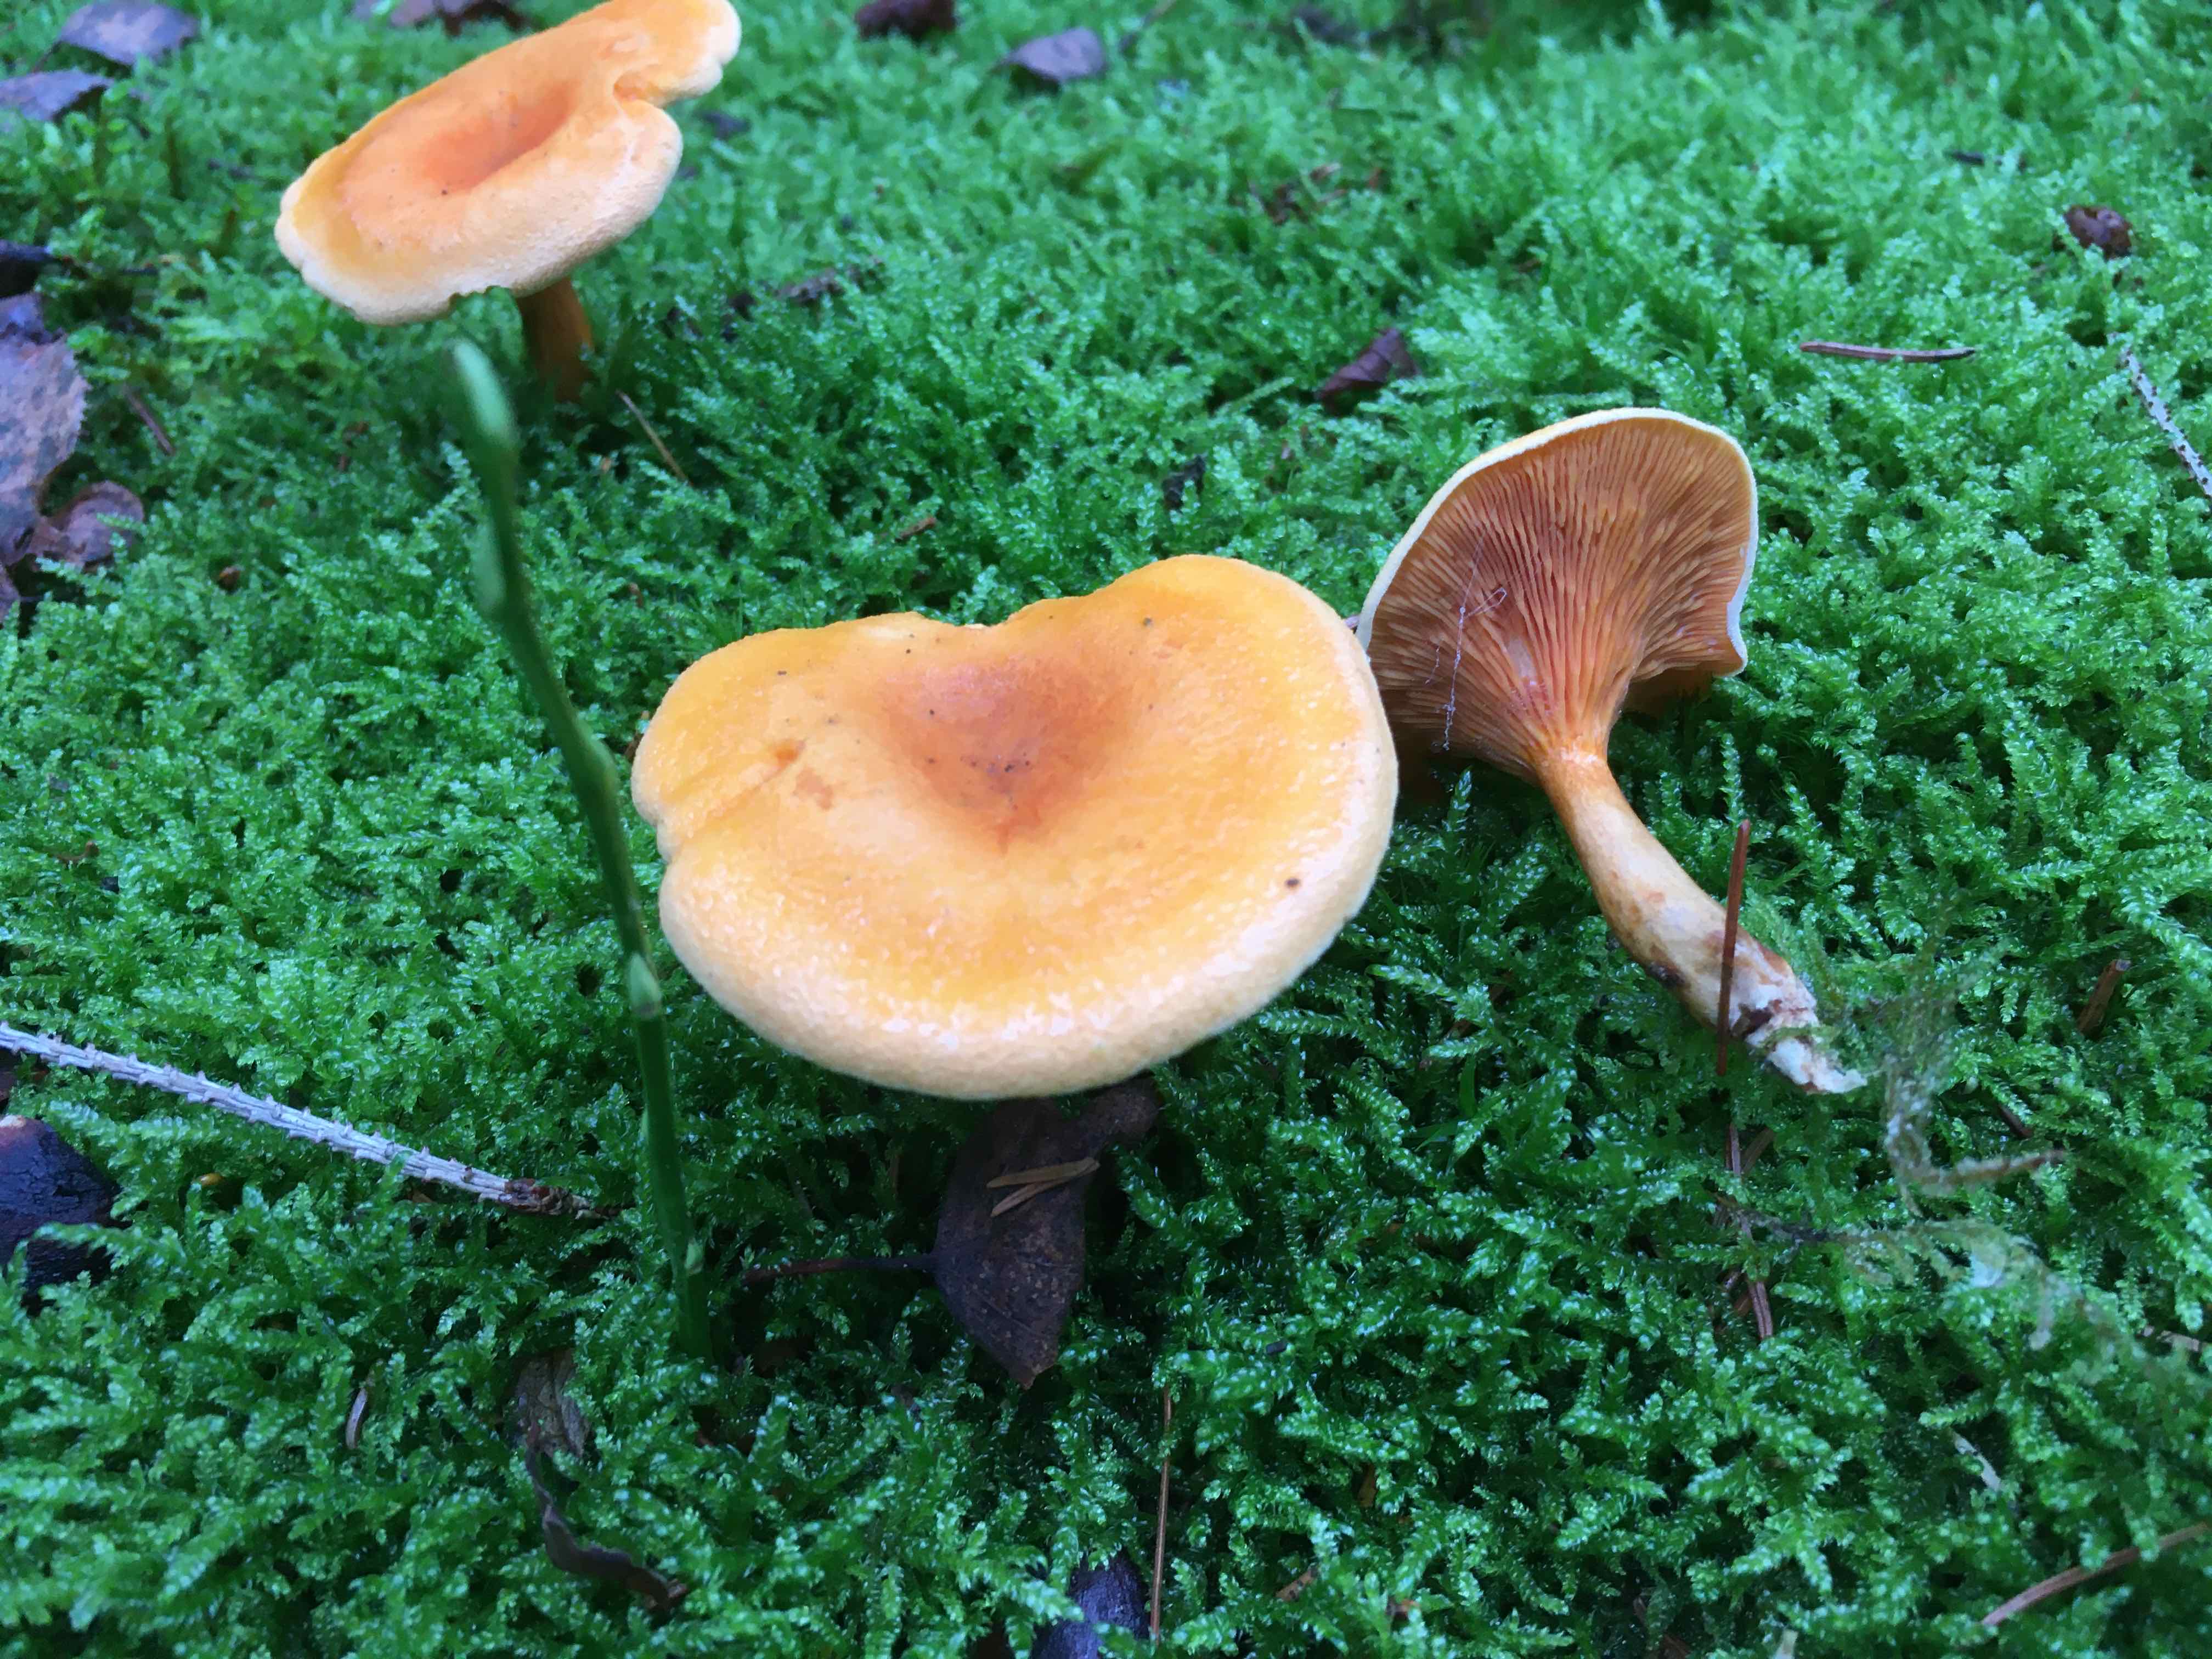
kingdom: Fungi
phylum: Basidiomycota
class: Agaricomycetes
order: Boletales
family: Hygrophoropsidaceae
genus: Hygrophoropsis
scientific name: Hygrophoropsis aurantiaca
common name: almindelig orangekantarel
